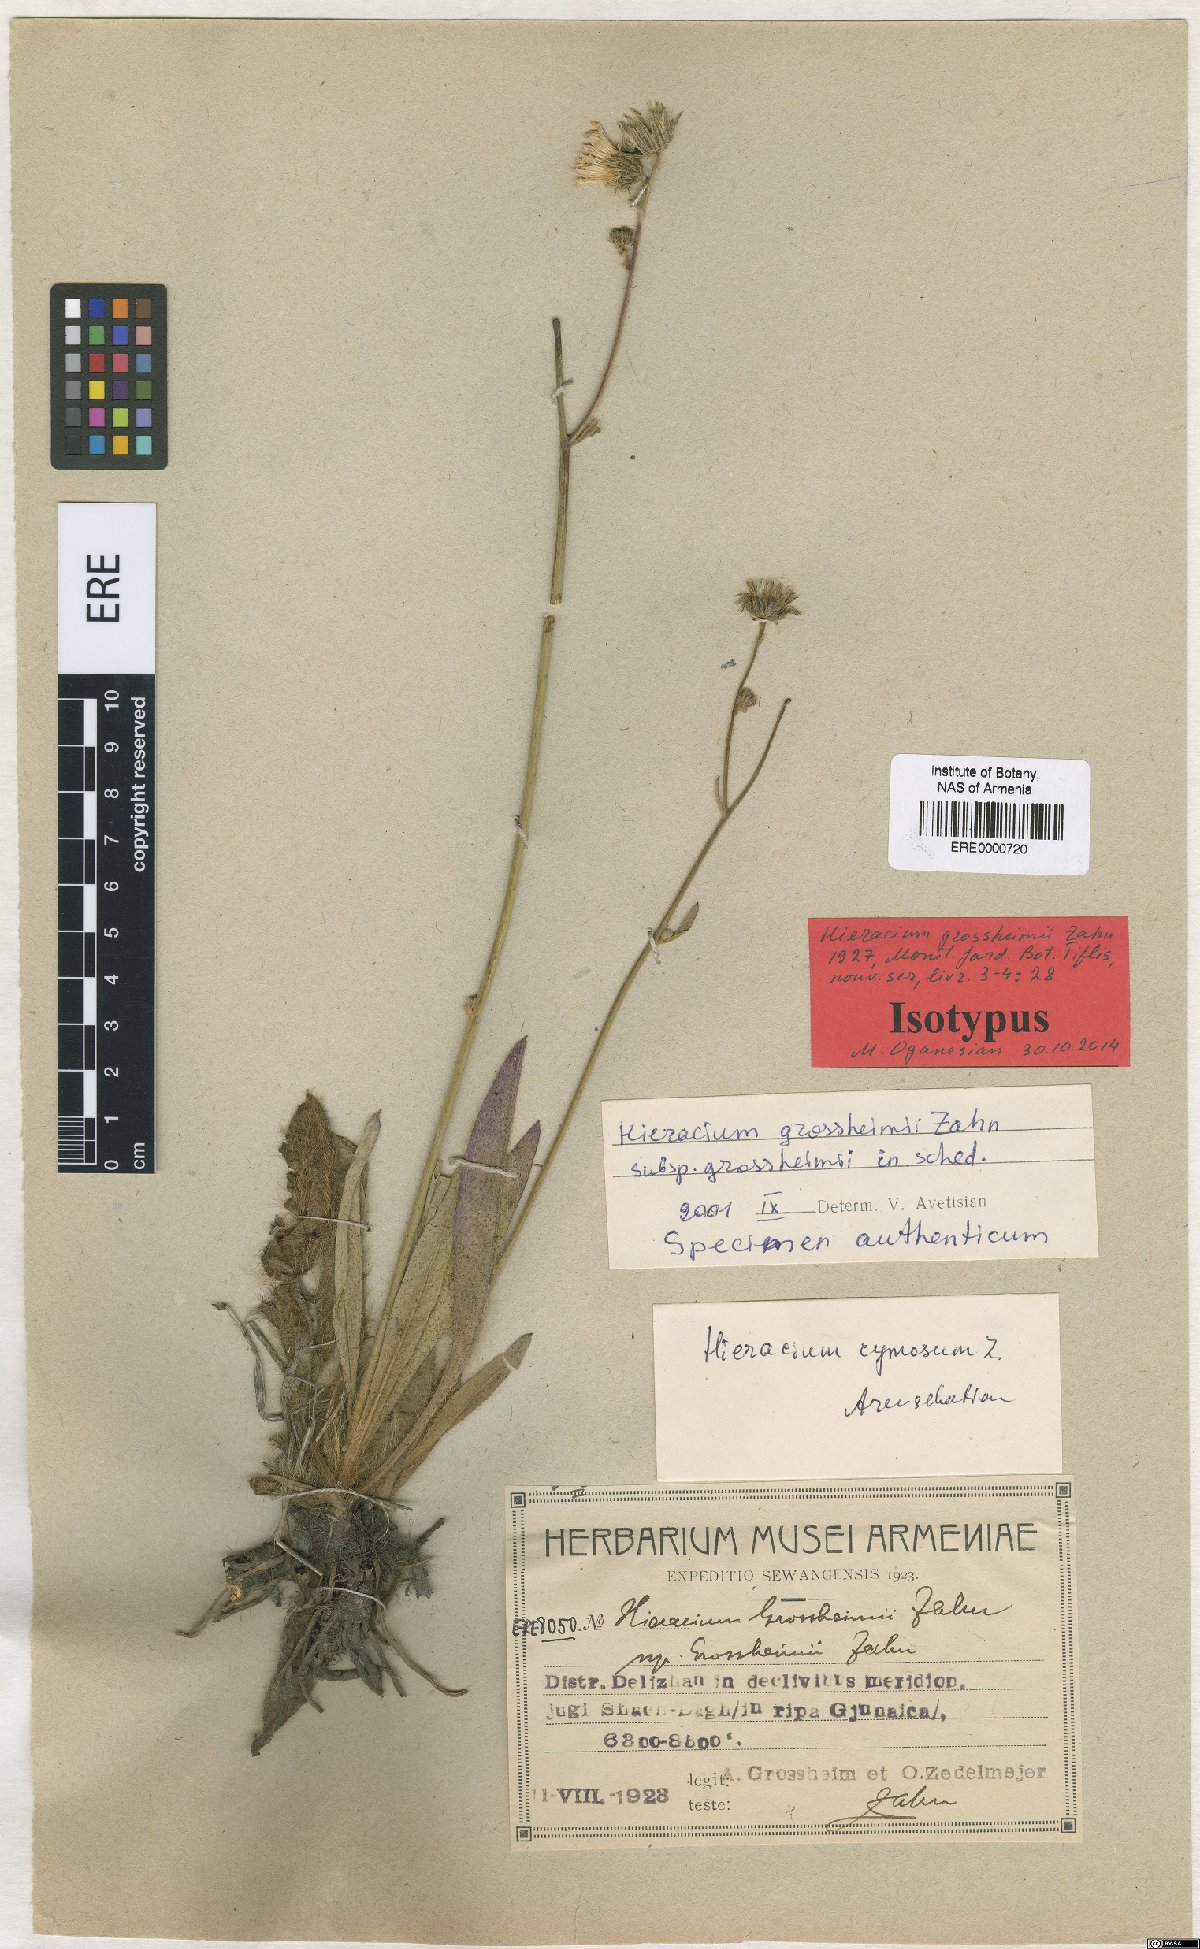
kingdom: Plantae
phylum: Tracheophyta
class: Magnoliopsida
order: Asterales
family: Asteraceae
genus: Pilosella
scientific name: Pilosella grossheimii
